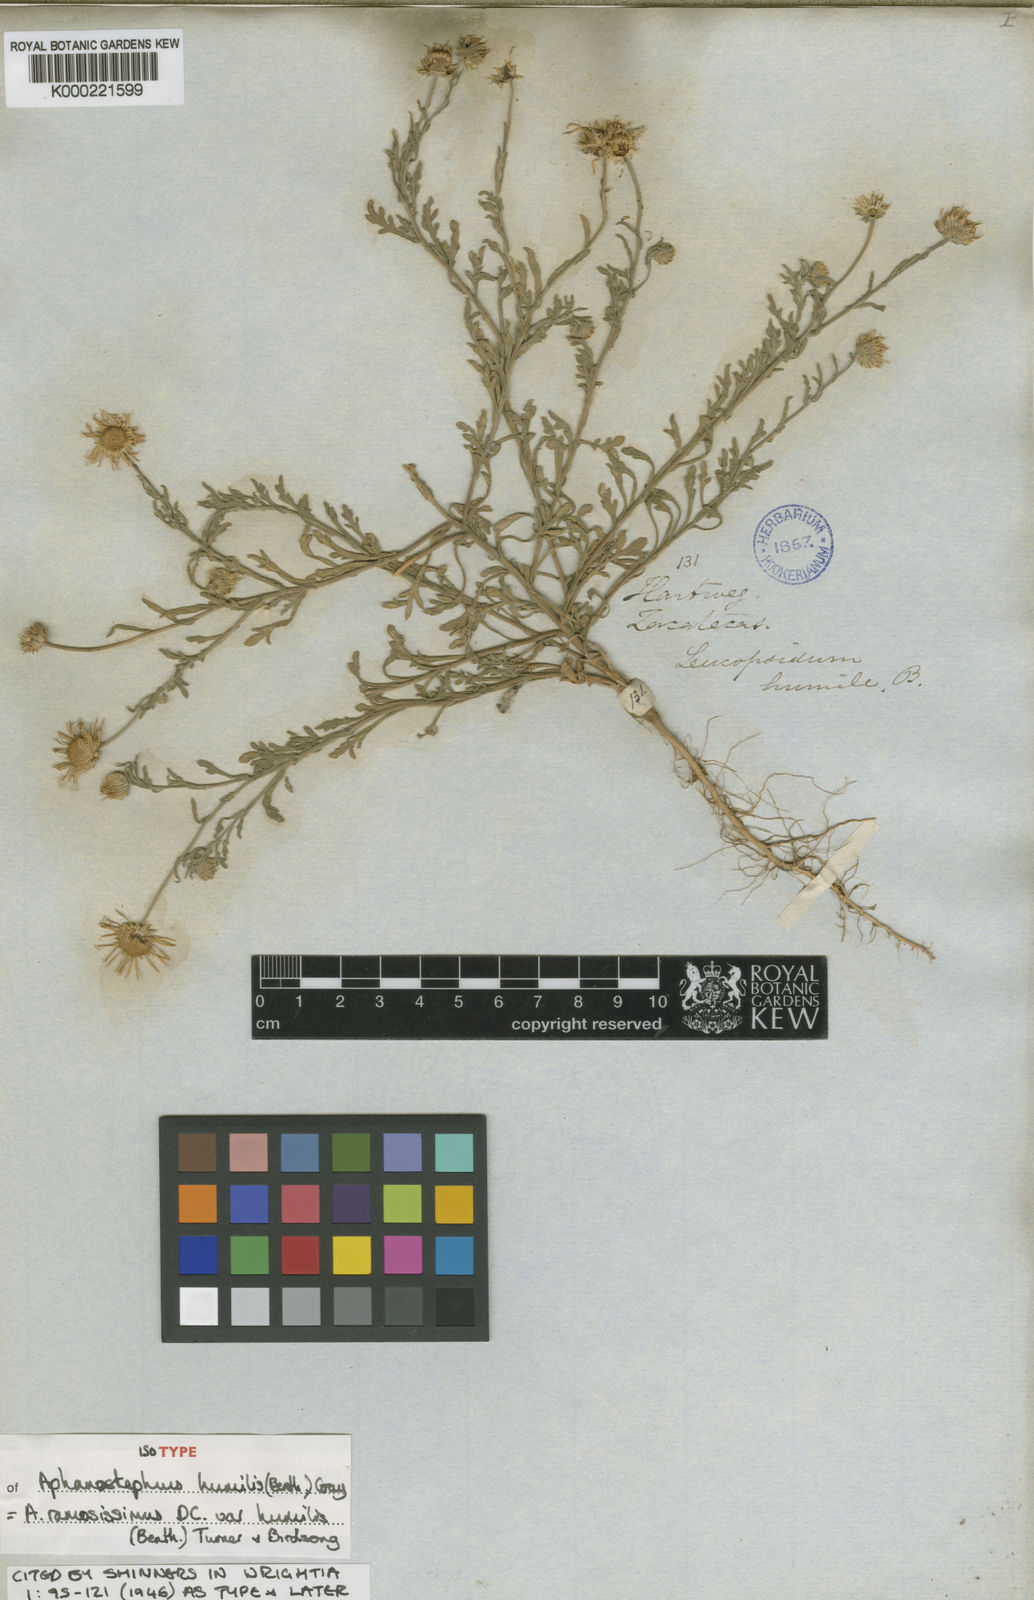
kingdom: Plantae
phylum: Tracheophyta
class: Magnoliopsida
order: Asterales
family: Asteraceae
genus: Aphanostephus
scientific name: Aphanostephus ramosissimus
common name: Plains lazy daisy
